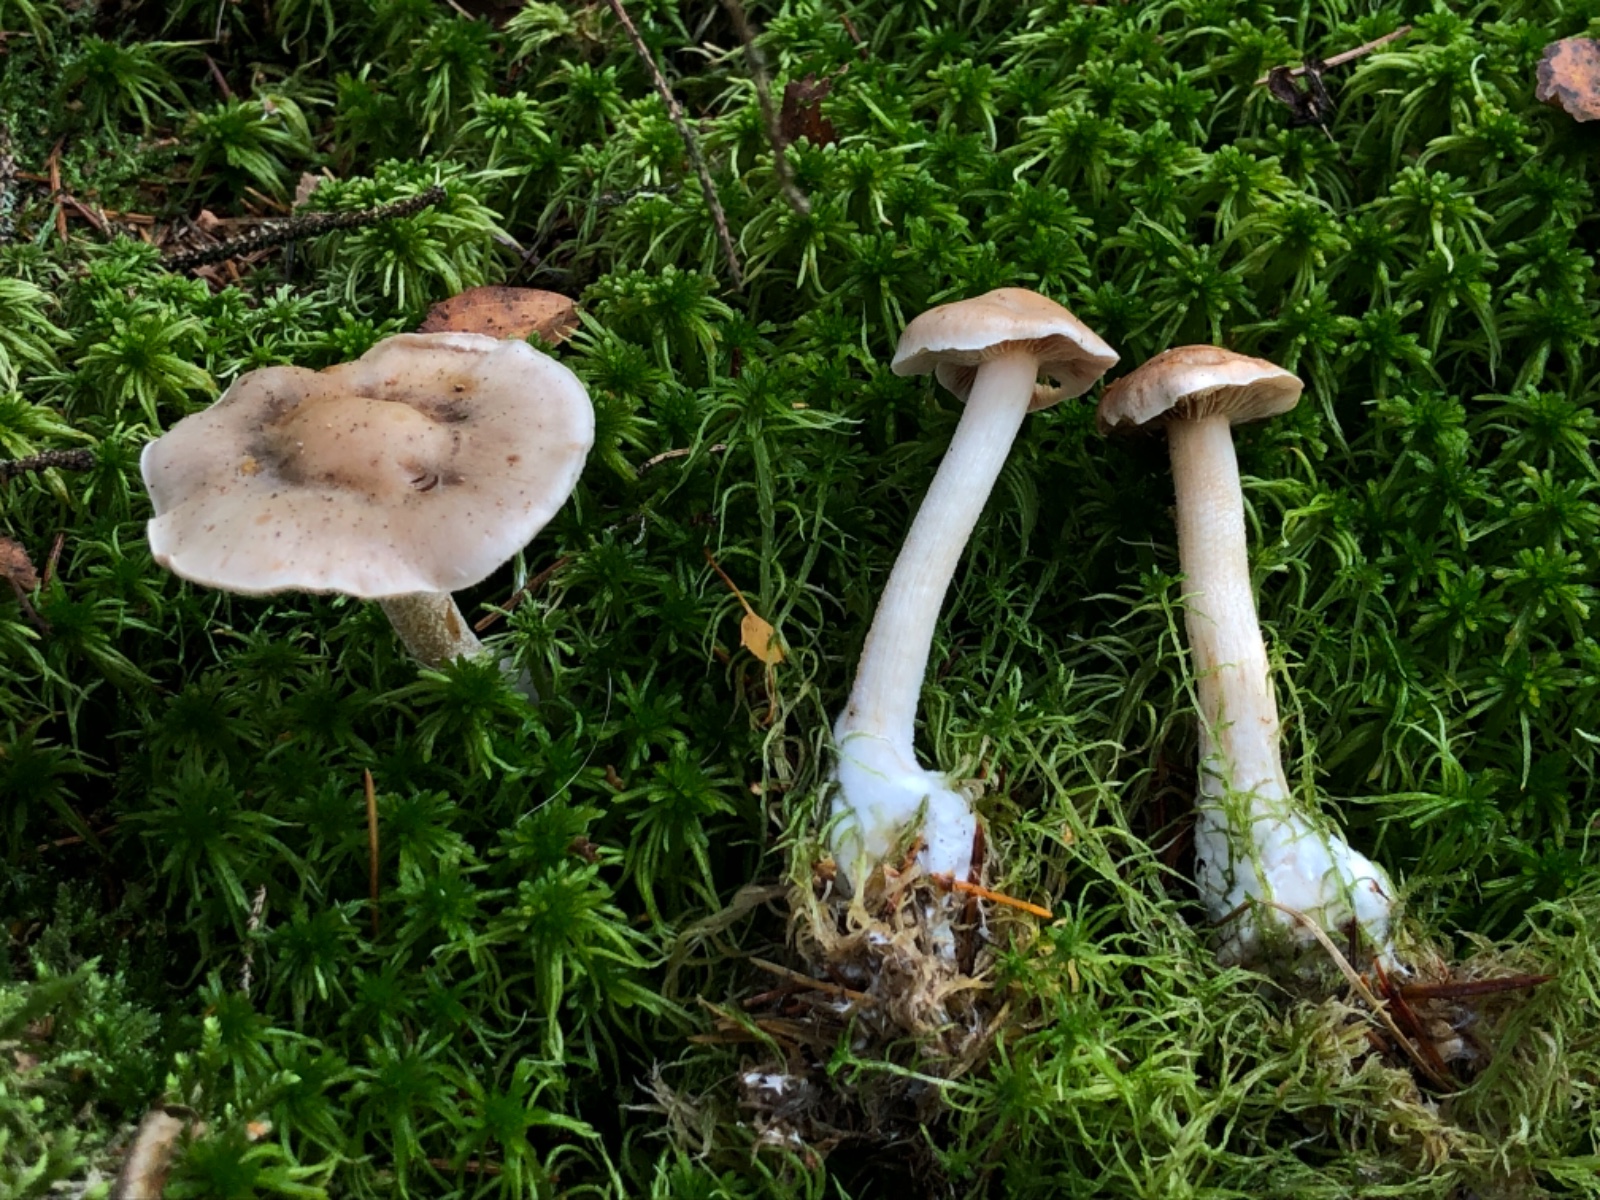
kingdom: Fungi
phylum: Basidiomycota
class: Agaricomycetes
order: Agaricales
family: Hymenogastraceae
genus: Hebeloma
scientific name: Hebeloma incarnatulum
